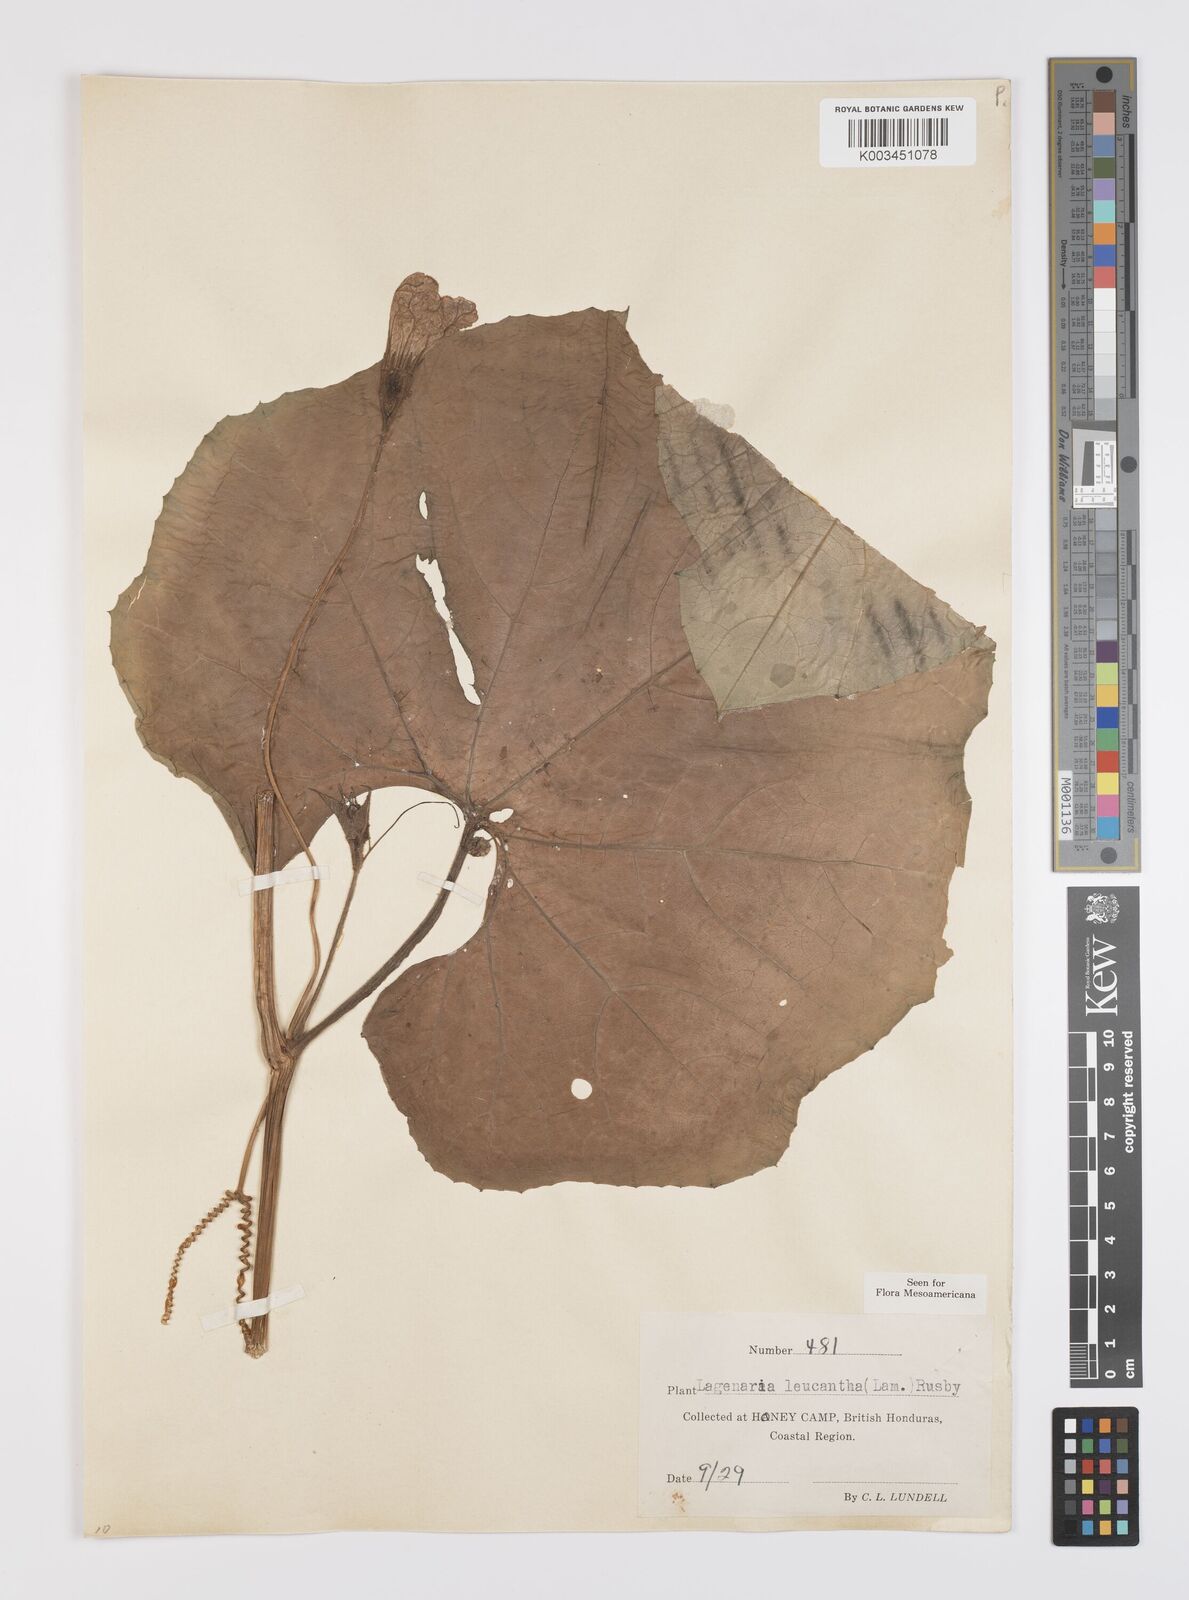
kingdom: Plantae
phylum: Tracheophyta
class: Magnoliopsida
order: Cucurbitales
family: Cucurbitaceae
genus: Lagenaria
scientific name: Lagenaria siceraria
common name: Bottle gourd
